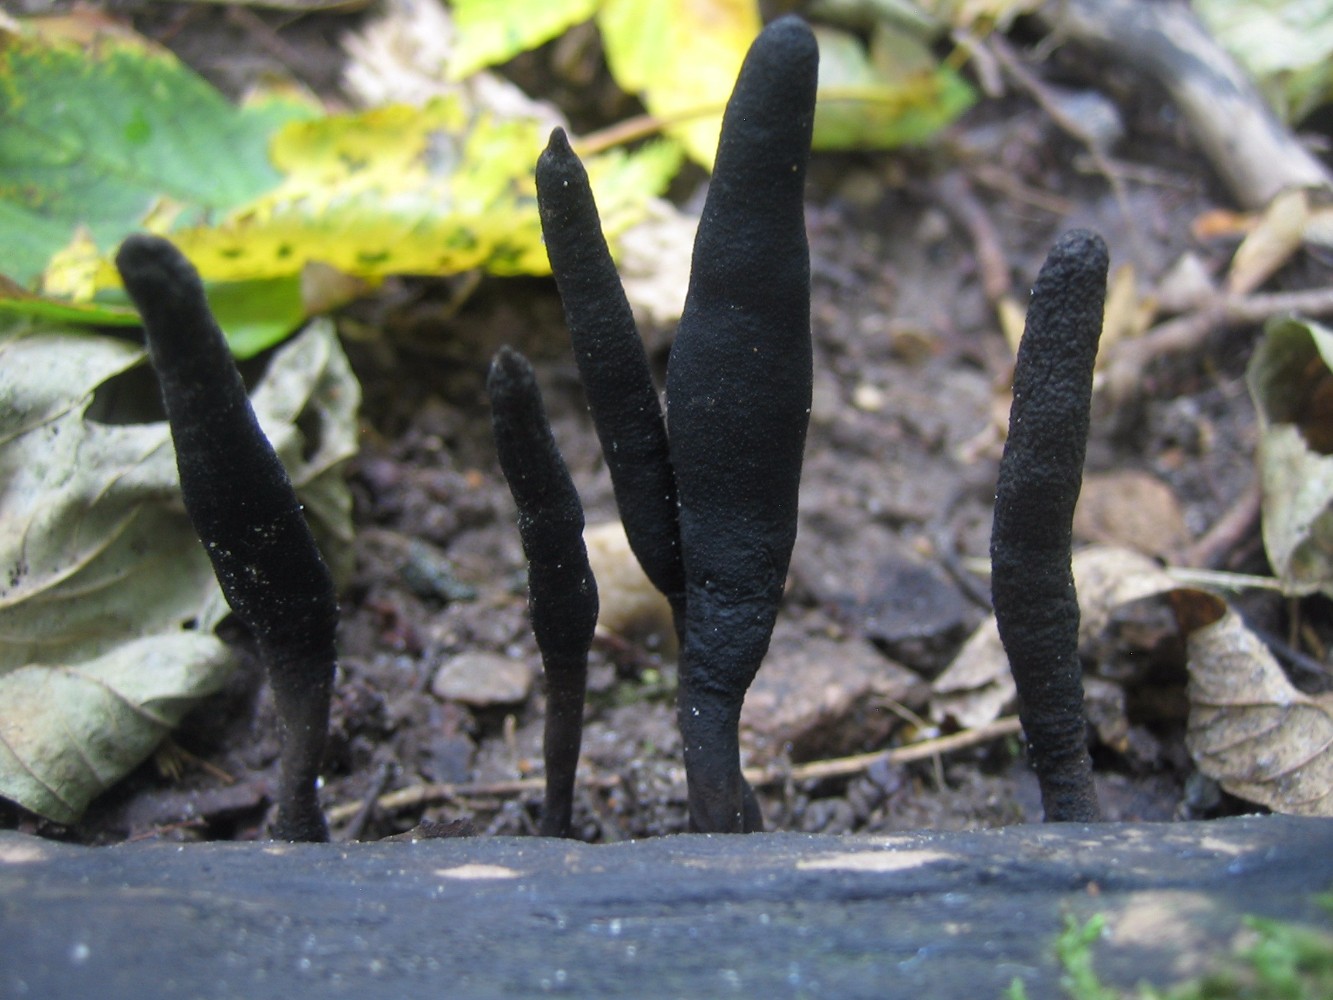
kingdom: Fungi
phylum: Ascomycota
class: Sordariomycetes
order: Xylariales
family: Xylariaceae
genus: Xylaria
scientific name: Xylaria longipes
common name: slank stødsvamp
